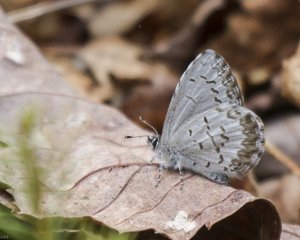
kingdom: Animalia
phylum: Arthropoda
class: Insecta
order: Lepidoptera
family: Lycaenidae
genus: Celastrina
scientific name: Celastrina lucia
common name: Northern Spring Azure
